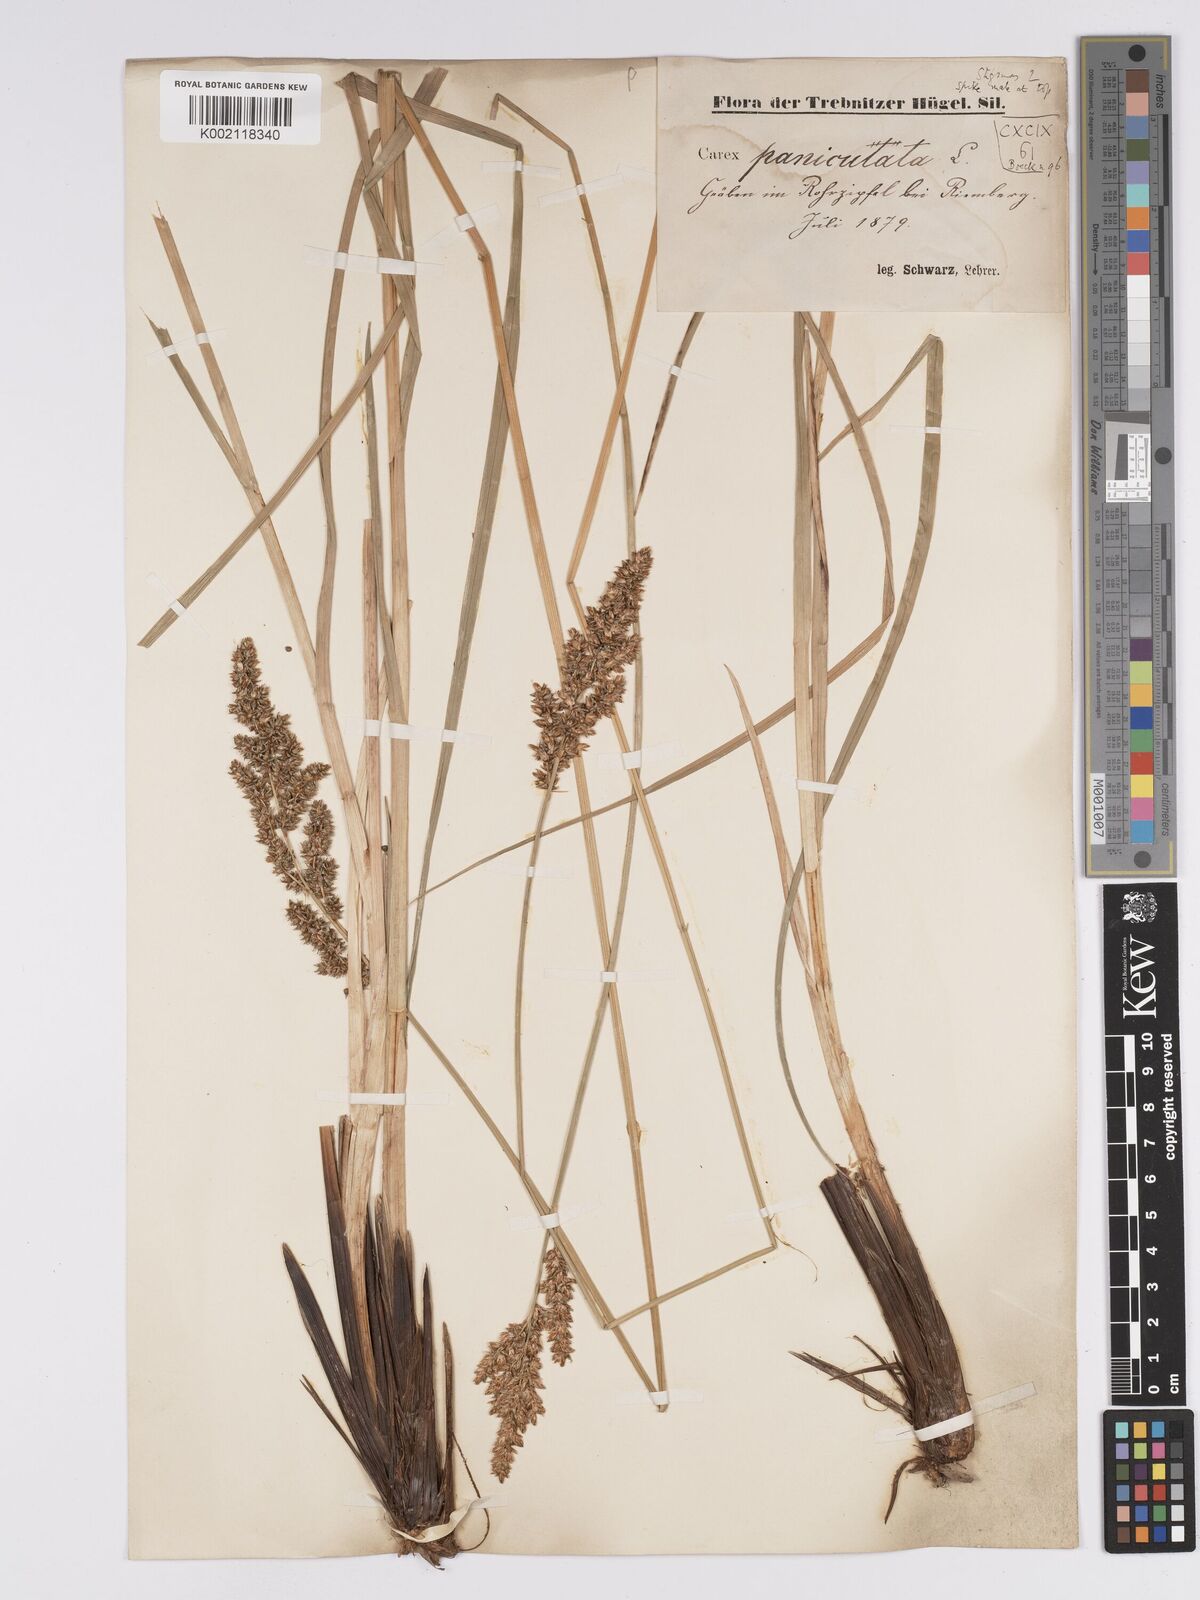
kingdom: Plantae
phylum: Tracheophyta
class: Liliopsida
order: Poales
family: Cyperaceae
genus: Carex
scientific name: Carex paniculata
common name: Greater tussock-sedge
